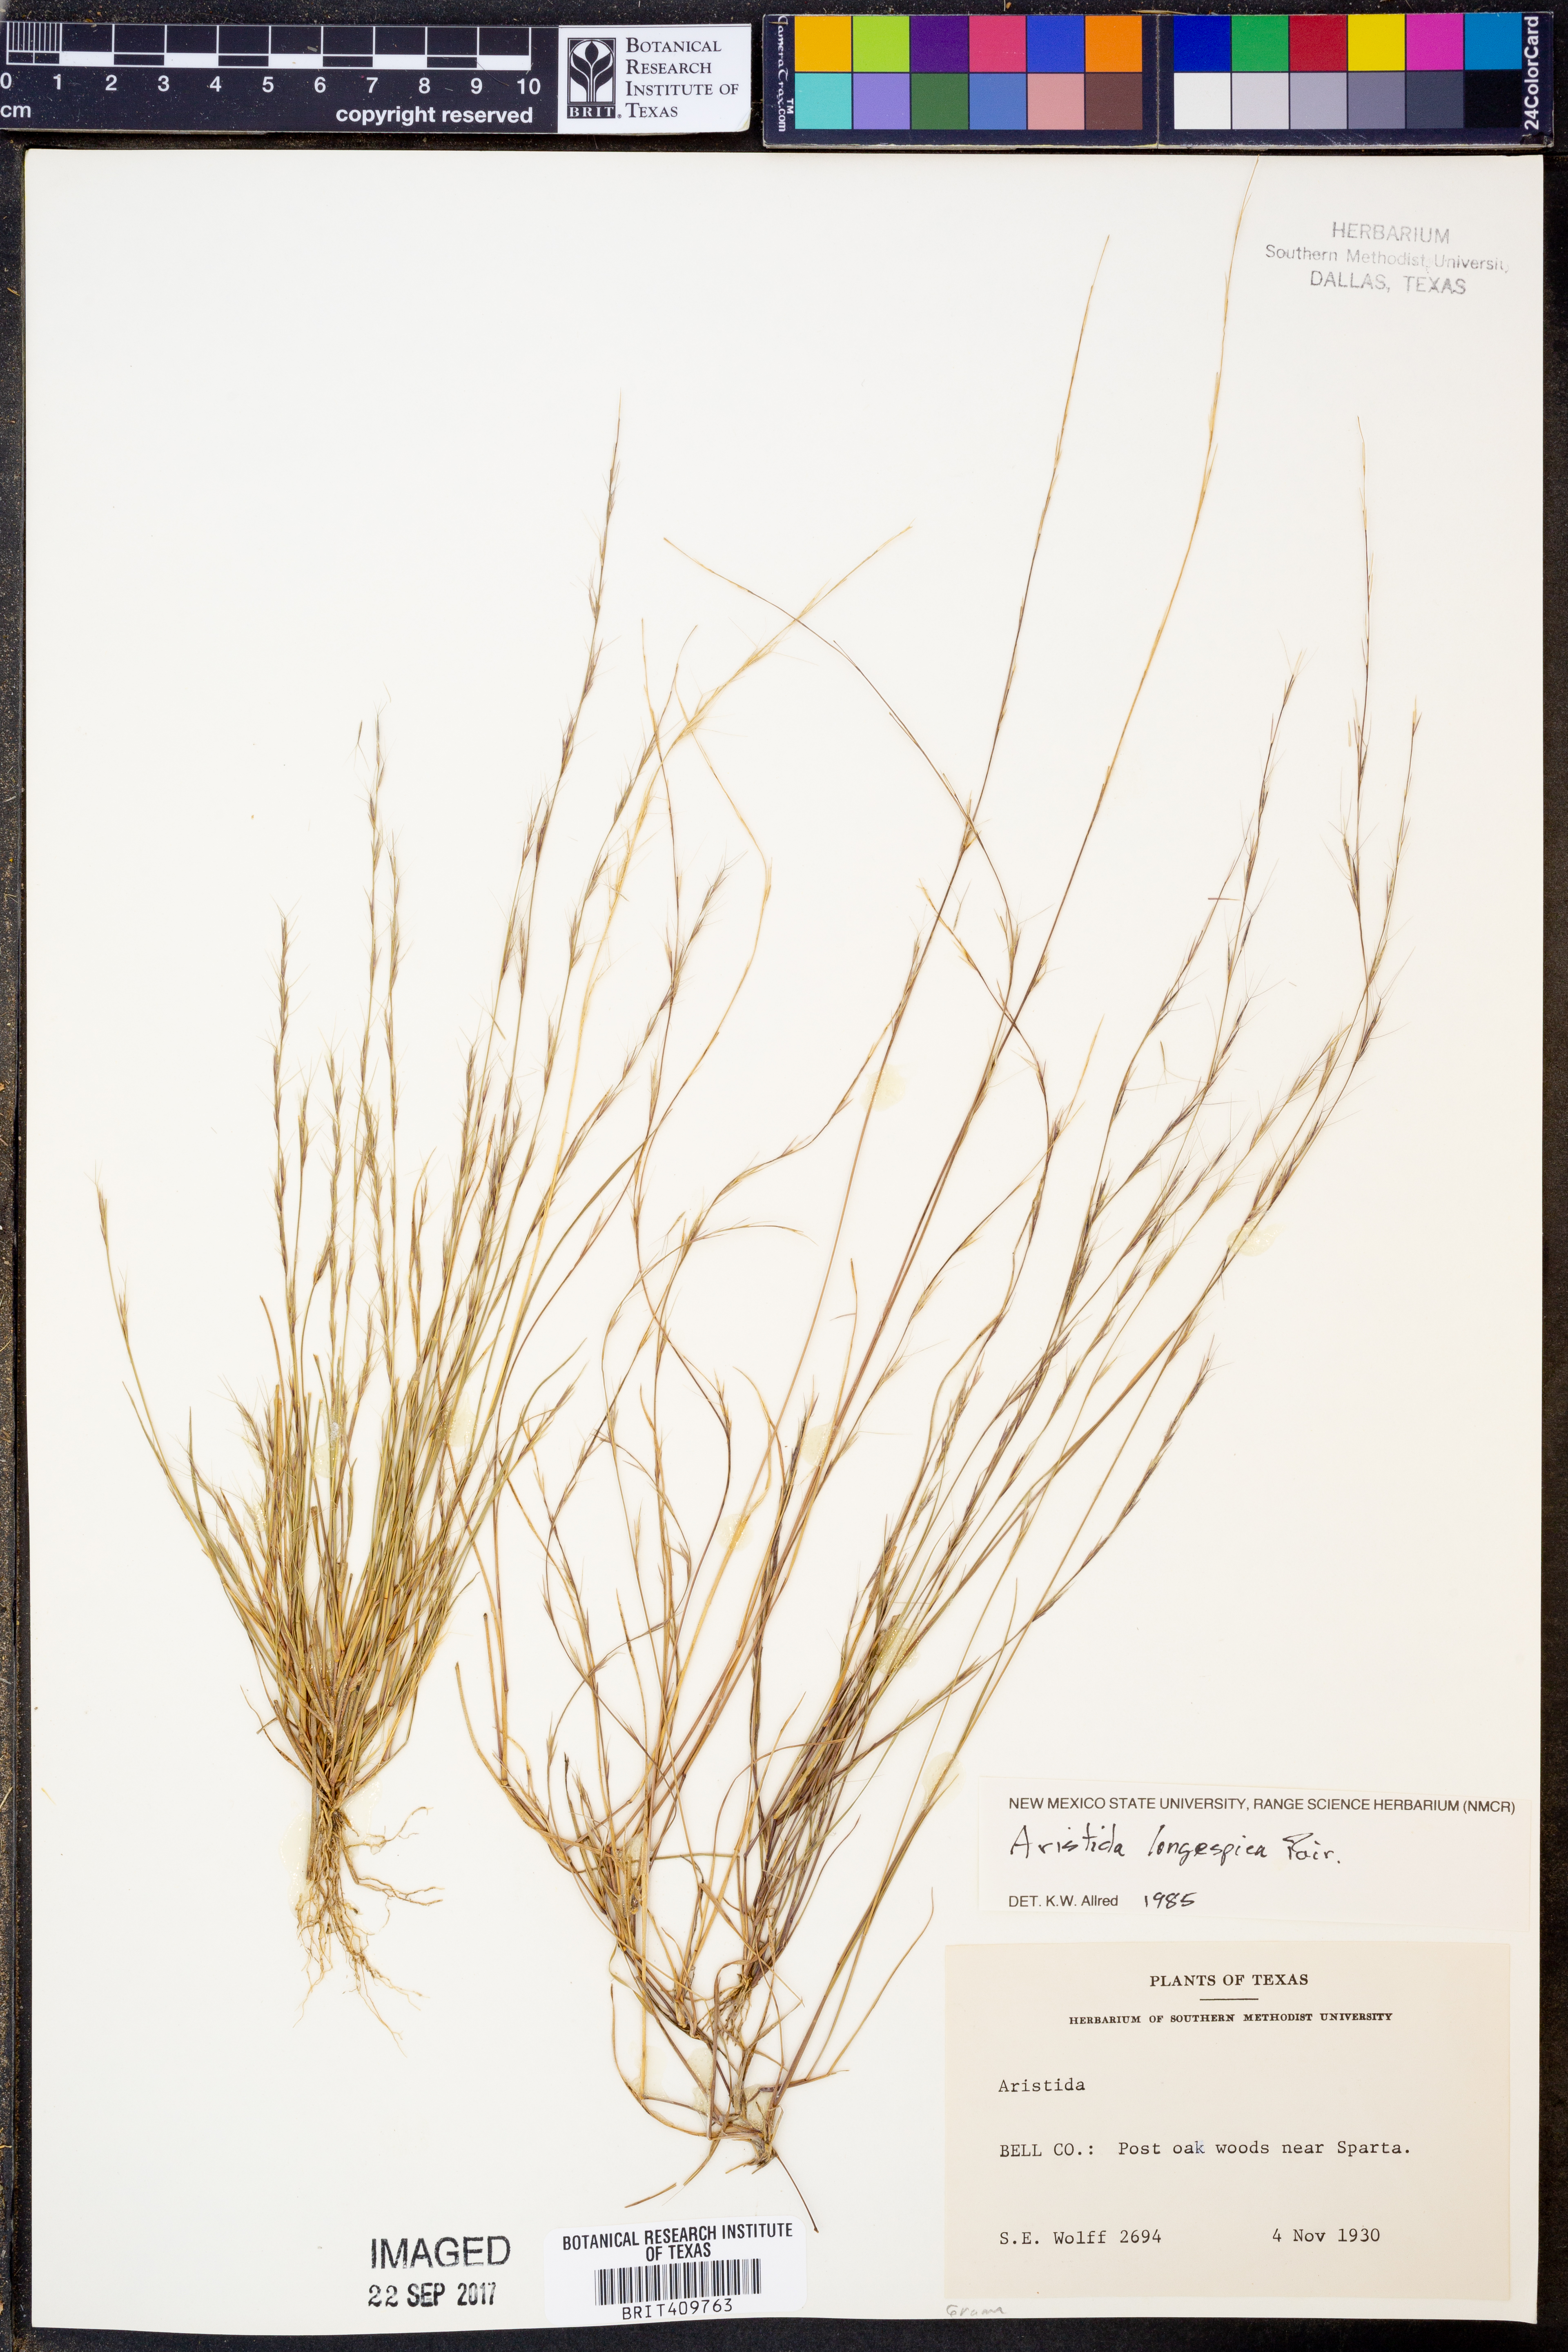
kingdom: Plantae
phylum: Tracheophyta
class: Liliopsida
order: Poales
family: Poaceae
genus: Aristida
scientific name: Aristida longespica
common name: Long-spiked triple-awned grass
